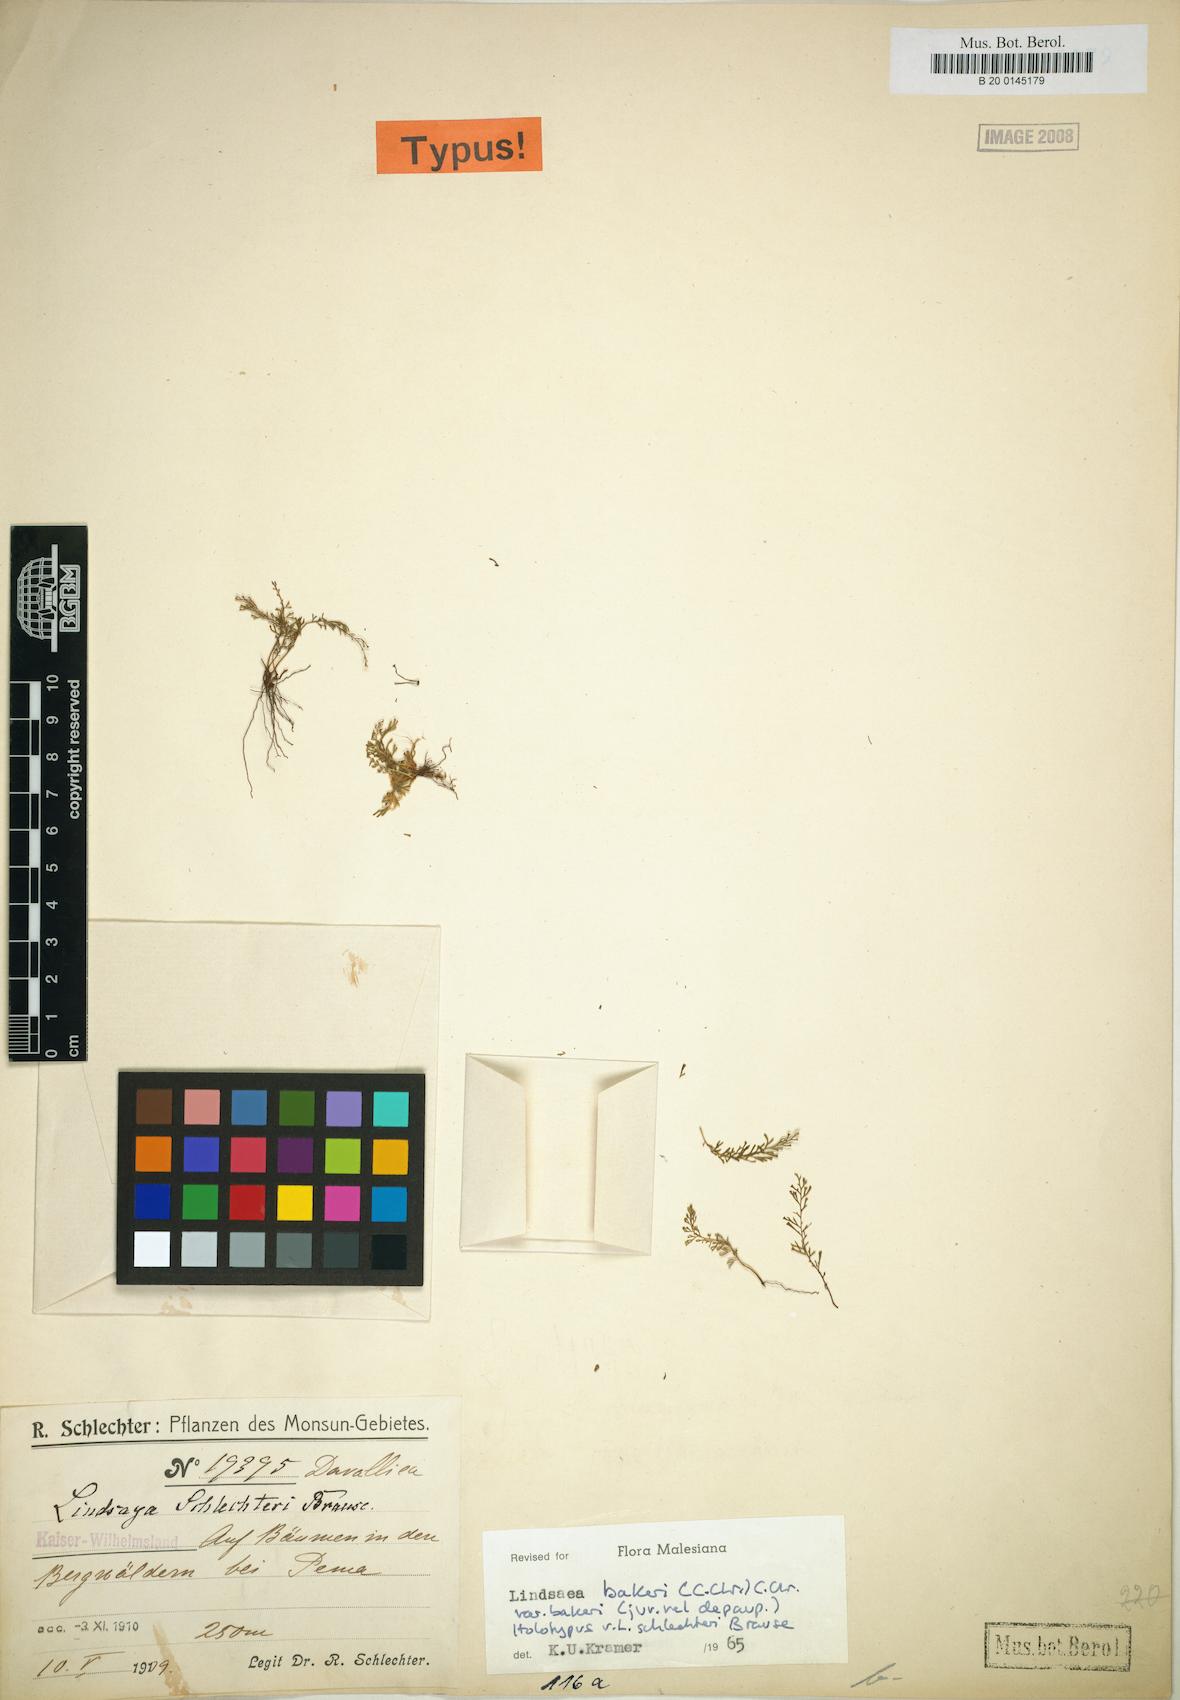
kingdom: Plantae
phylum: Tracheophyta
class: Polypodiopsida
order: Polypodiales
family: Lindsaeaceae
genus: Lindsaea
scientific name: Lindsaea bakeri
